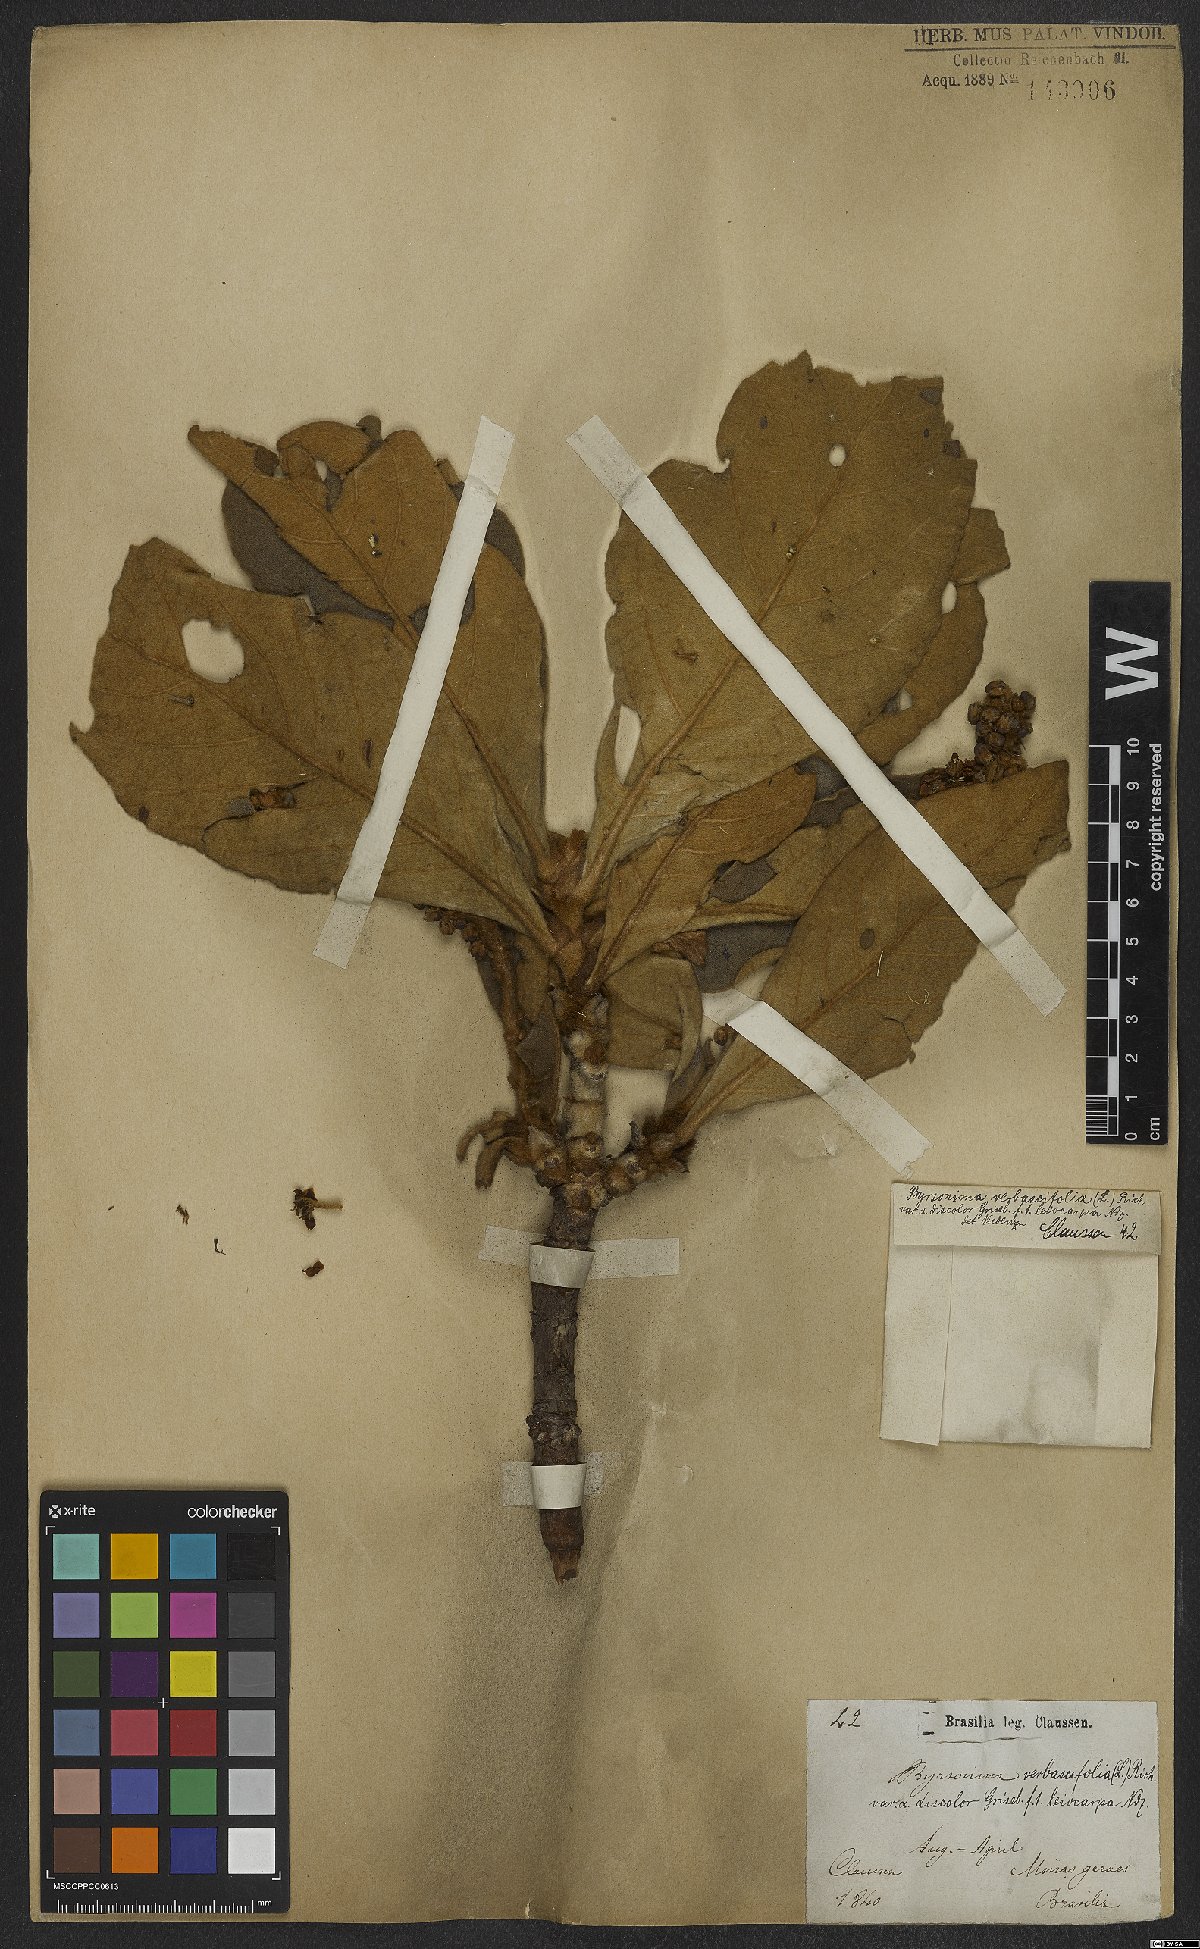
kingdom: Plantae
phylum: Tracheophyta
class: Magnoliopsida
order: Malpighiales
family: Malpighiaceae
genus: Byrsonima
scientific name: Byrsonima verbascifolia
